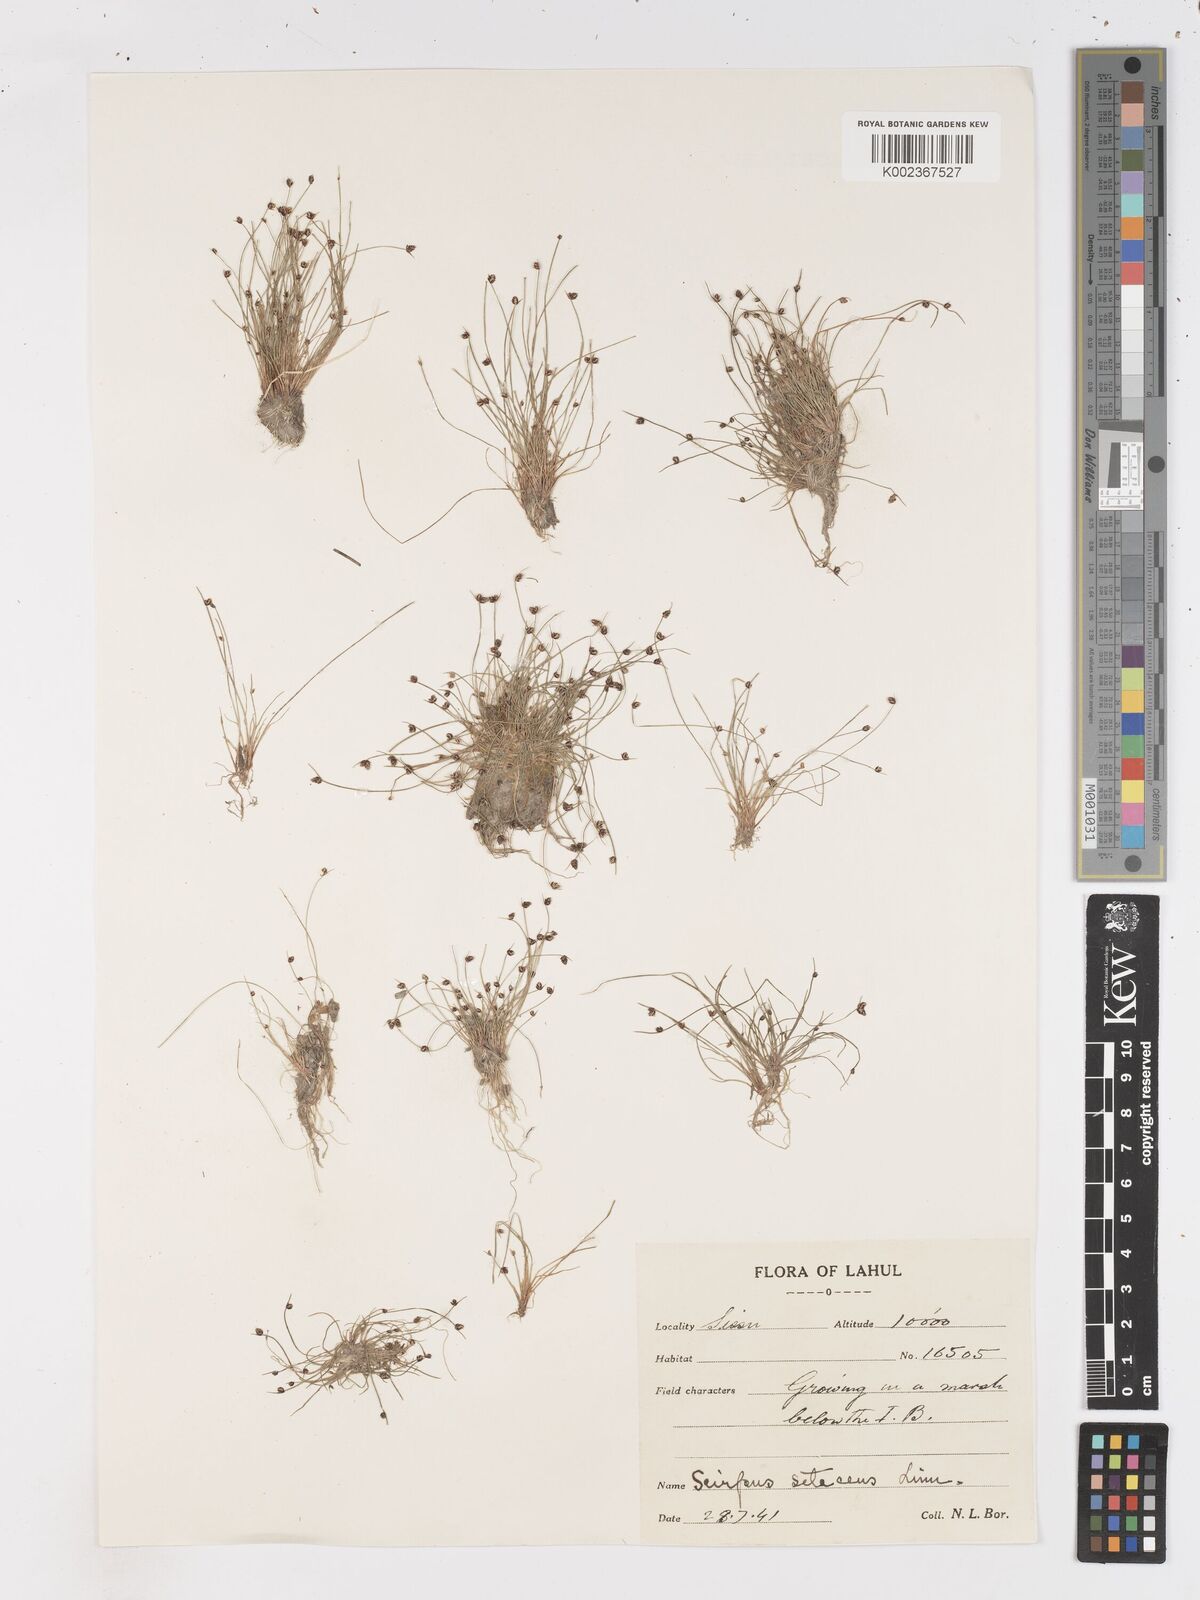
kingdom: Plantae
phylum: Tracheophyta
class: Liliopsida
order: Poales
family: Cyperaceae
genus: Isolepis
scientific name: Isolepis setacea
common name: Bristle club-rush
